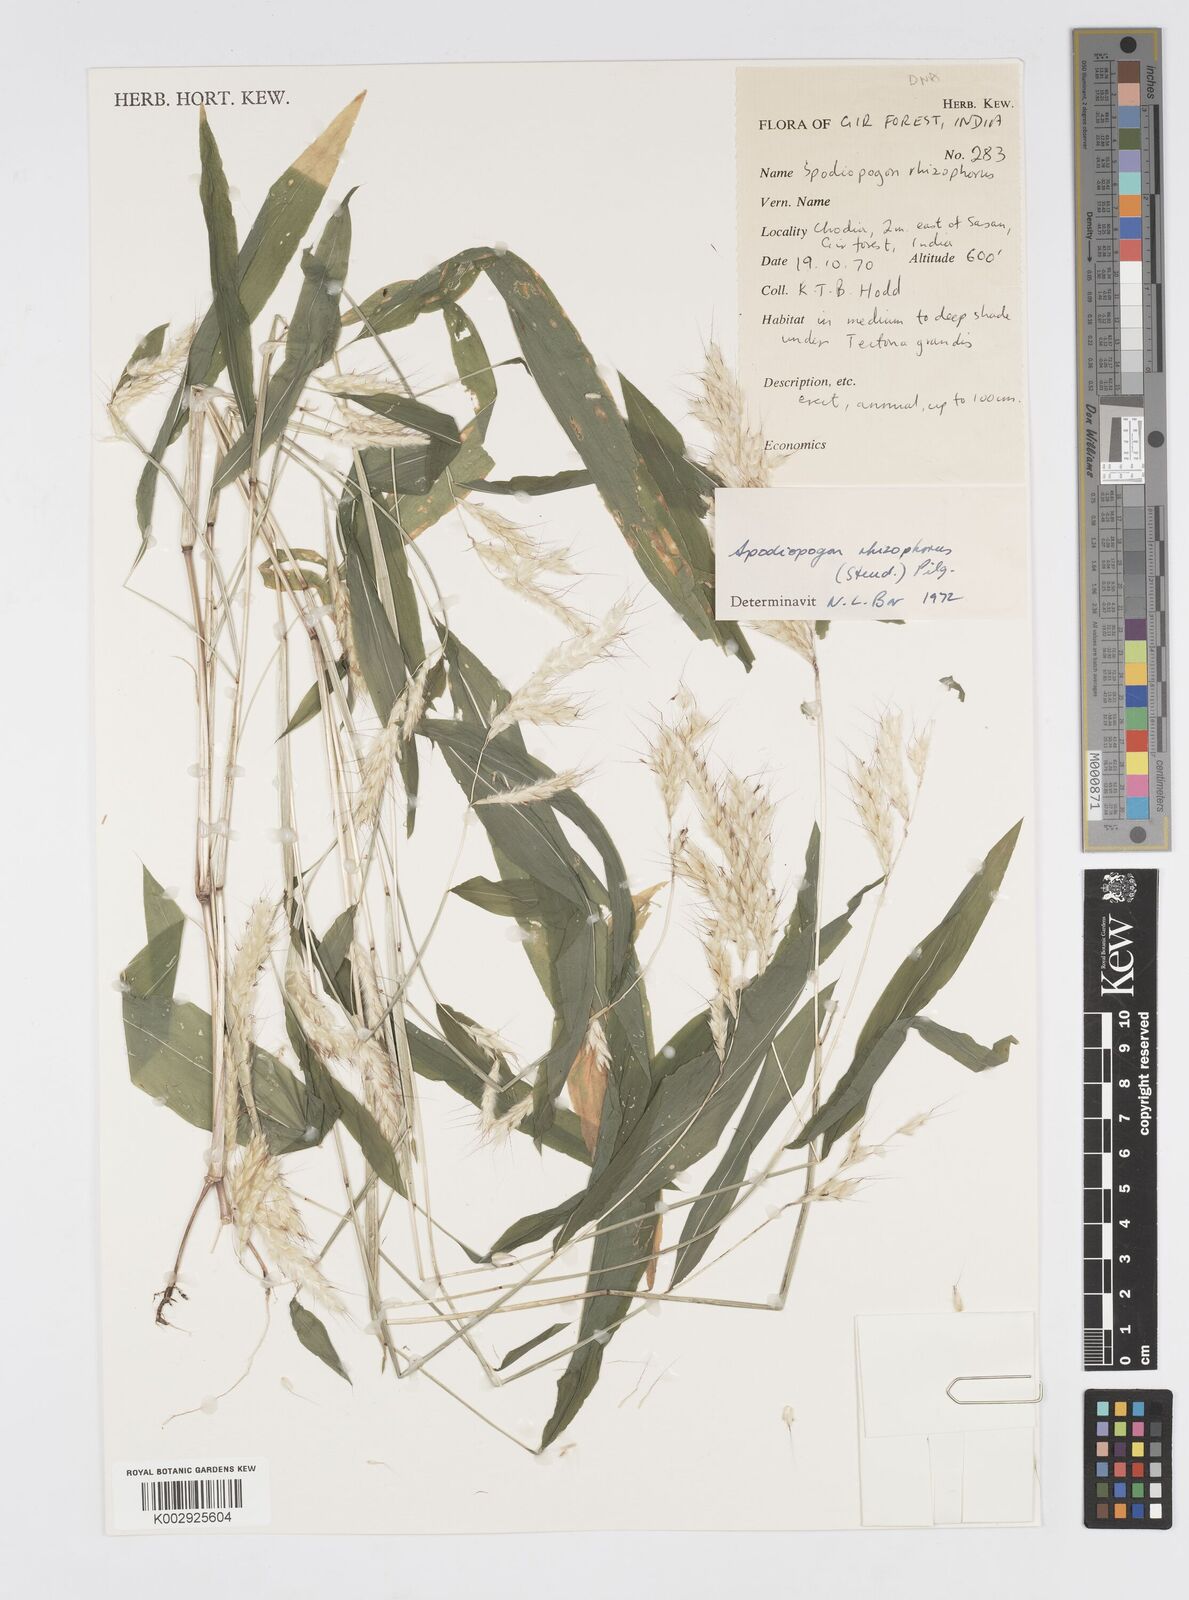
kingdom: Plantae
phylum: Tracheophyta
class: Liliopsida
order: Poales
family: Poaceae
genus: Spodiopogon
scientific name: Spodiopogon rhizophorus
